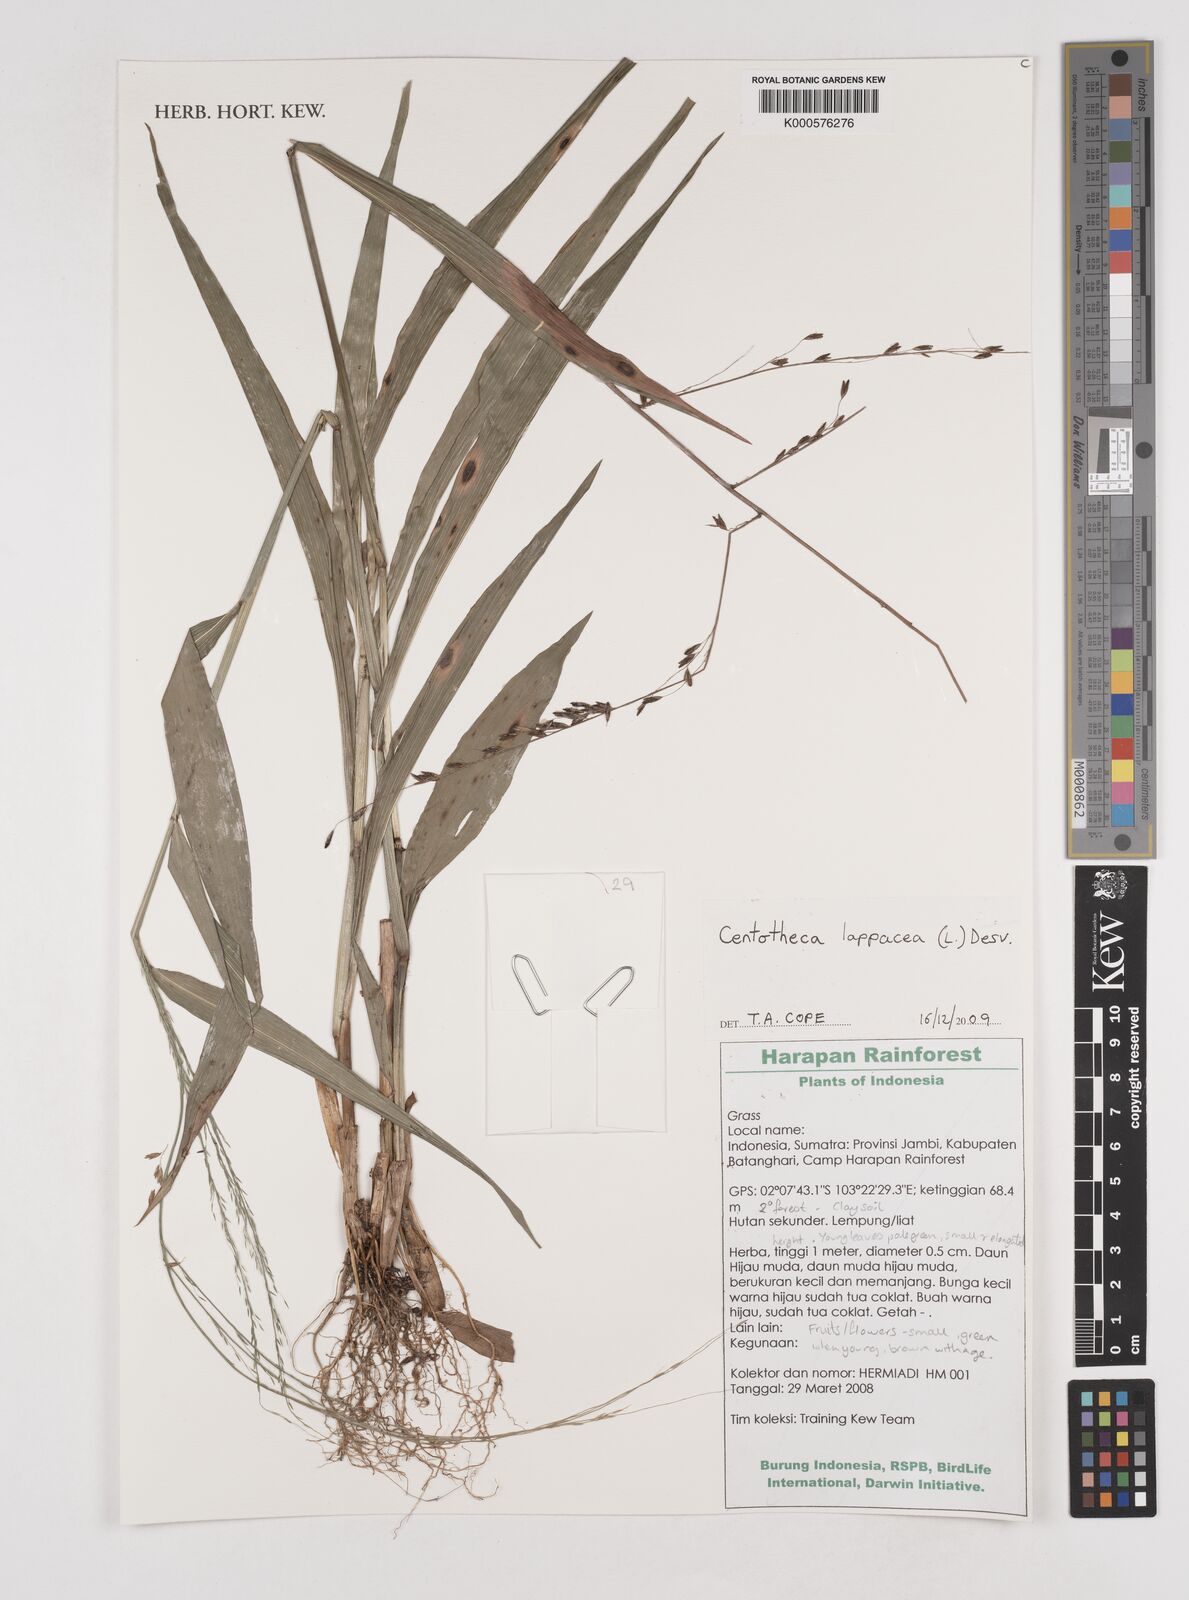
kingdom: Plantae
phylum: Tracheophyta
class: Liliopsida
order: Poales
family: Poaceae
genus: Centotheca
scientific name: Centotheca lappacea
